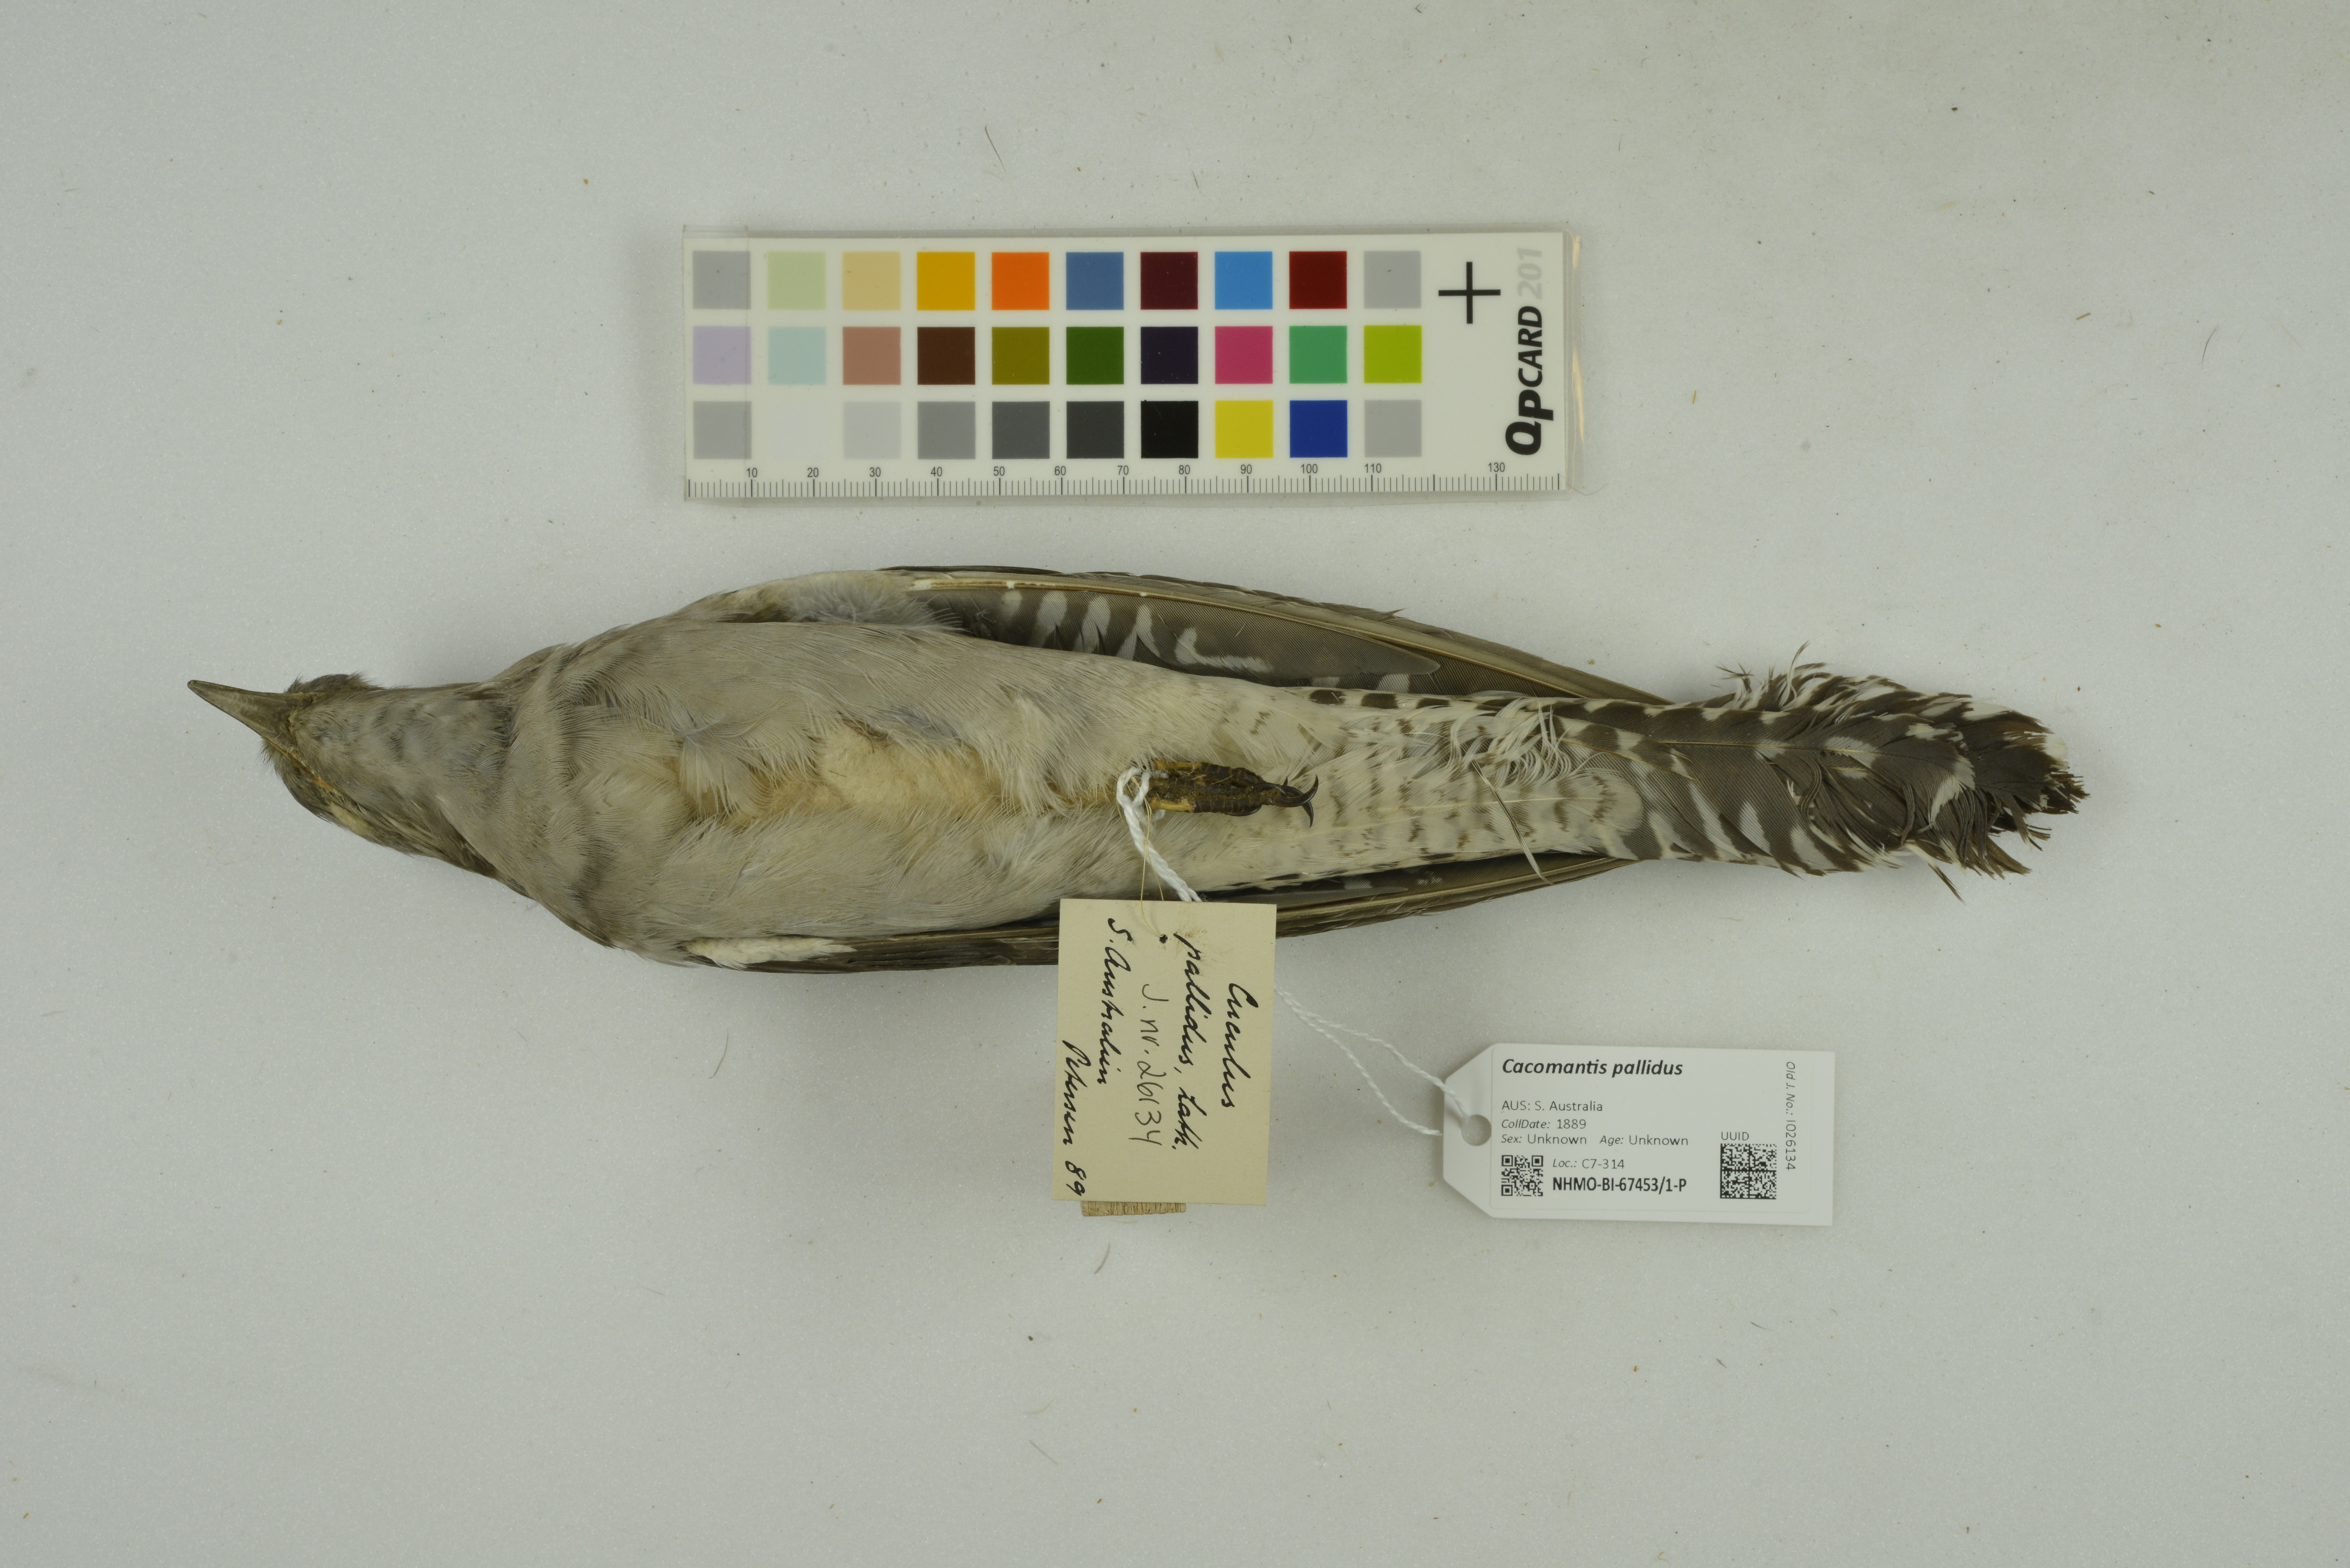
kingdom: Animalia
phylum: Chordata
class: Aves
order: Cuculiformes
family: Cuculidae
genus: Cuculus
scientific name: Cuculus pallidus
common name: Pallid cuckoo
